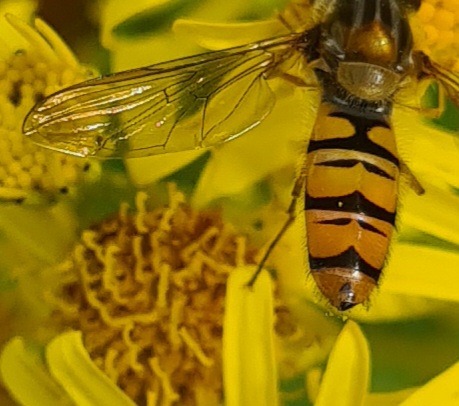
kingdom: Animalia
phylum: Arthropoda
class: Insecta
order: Diptera
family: Syrphidae
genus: Episyrphus
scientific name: Episyrphus balteatus
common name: Dobbeltbåndet svirreflue
